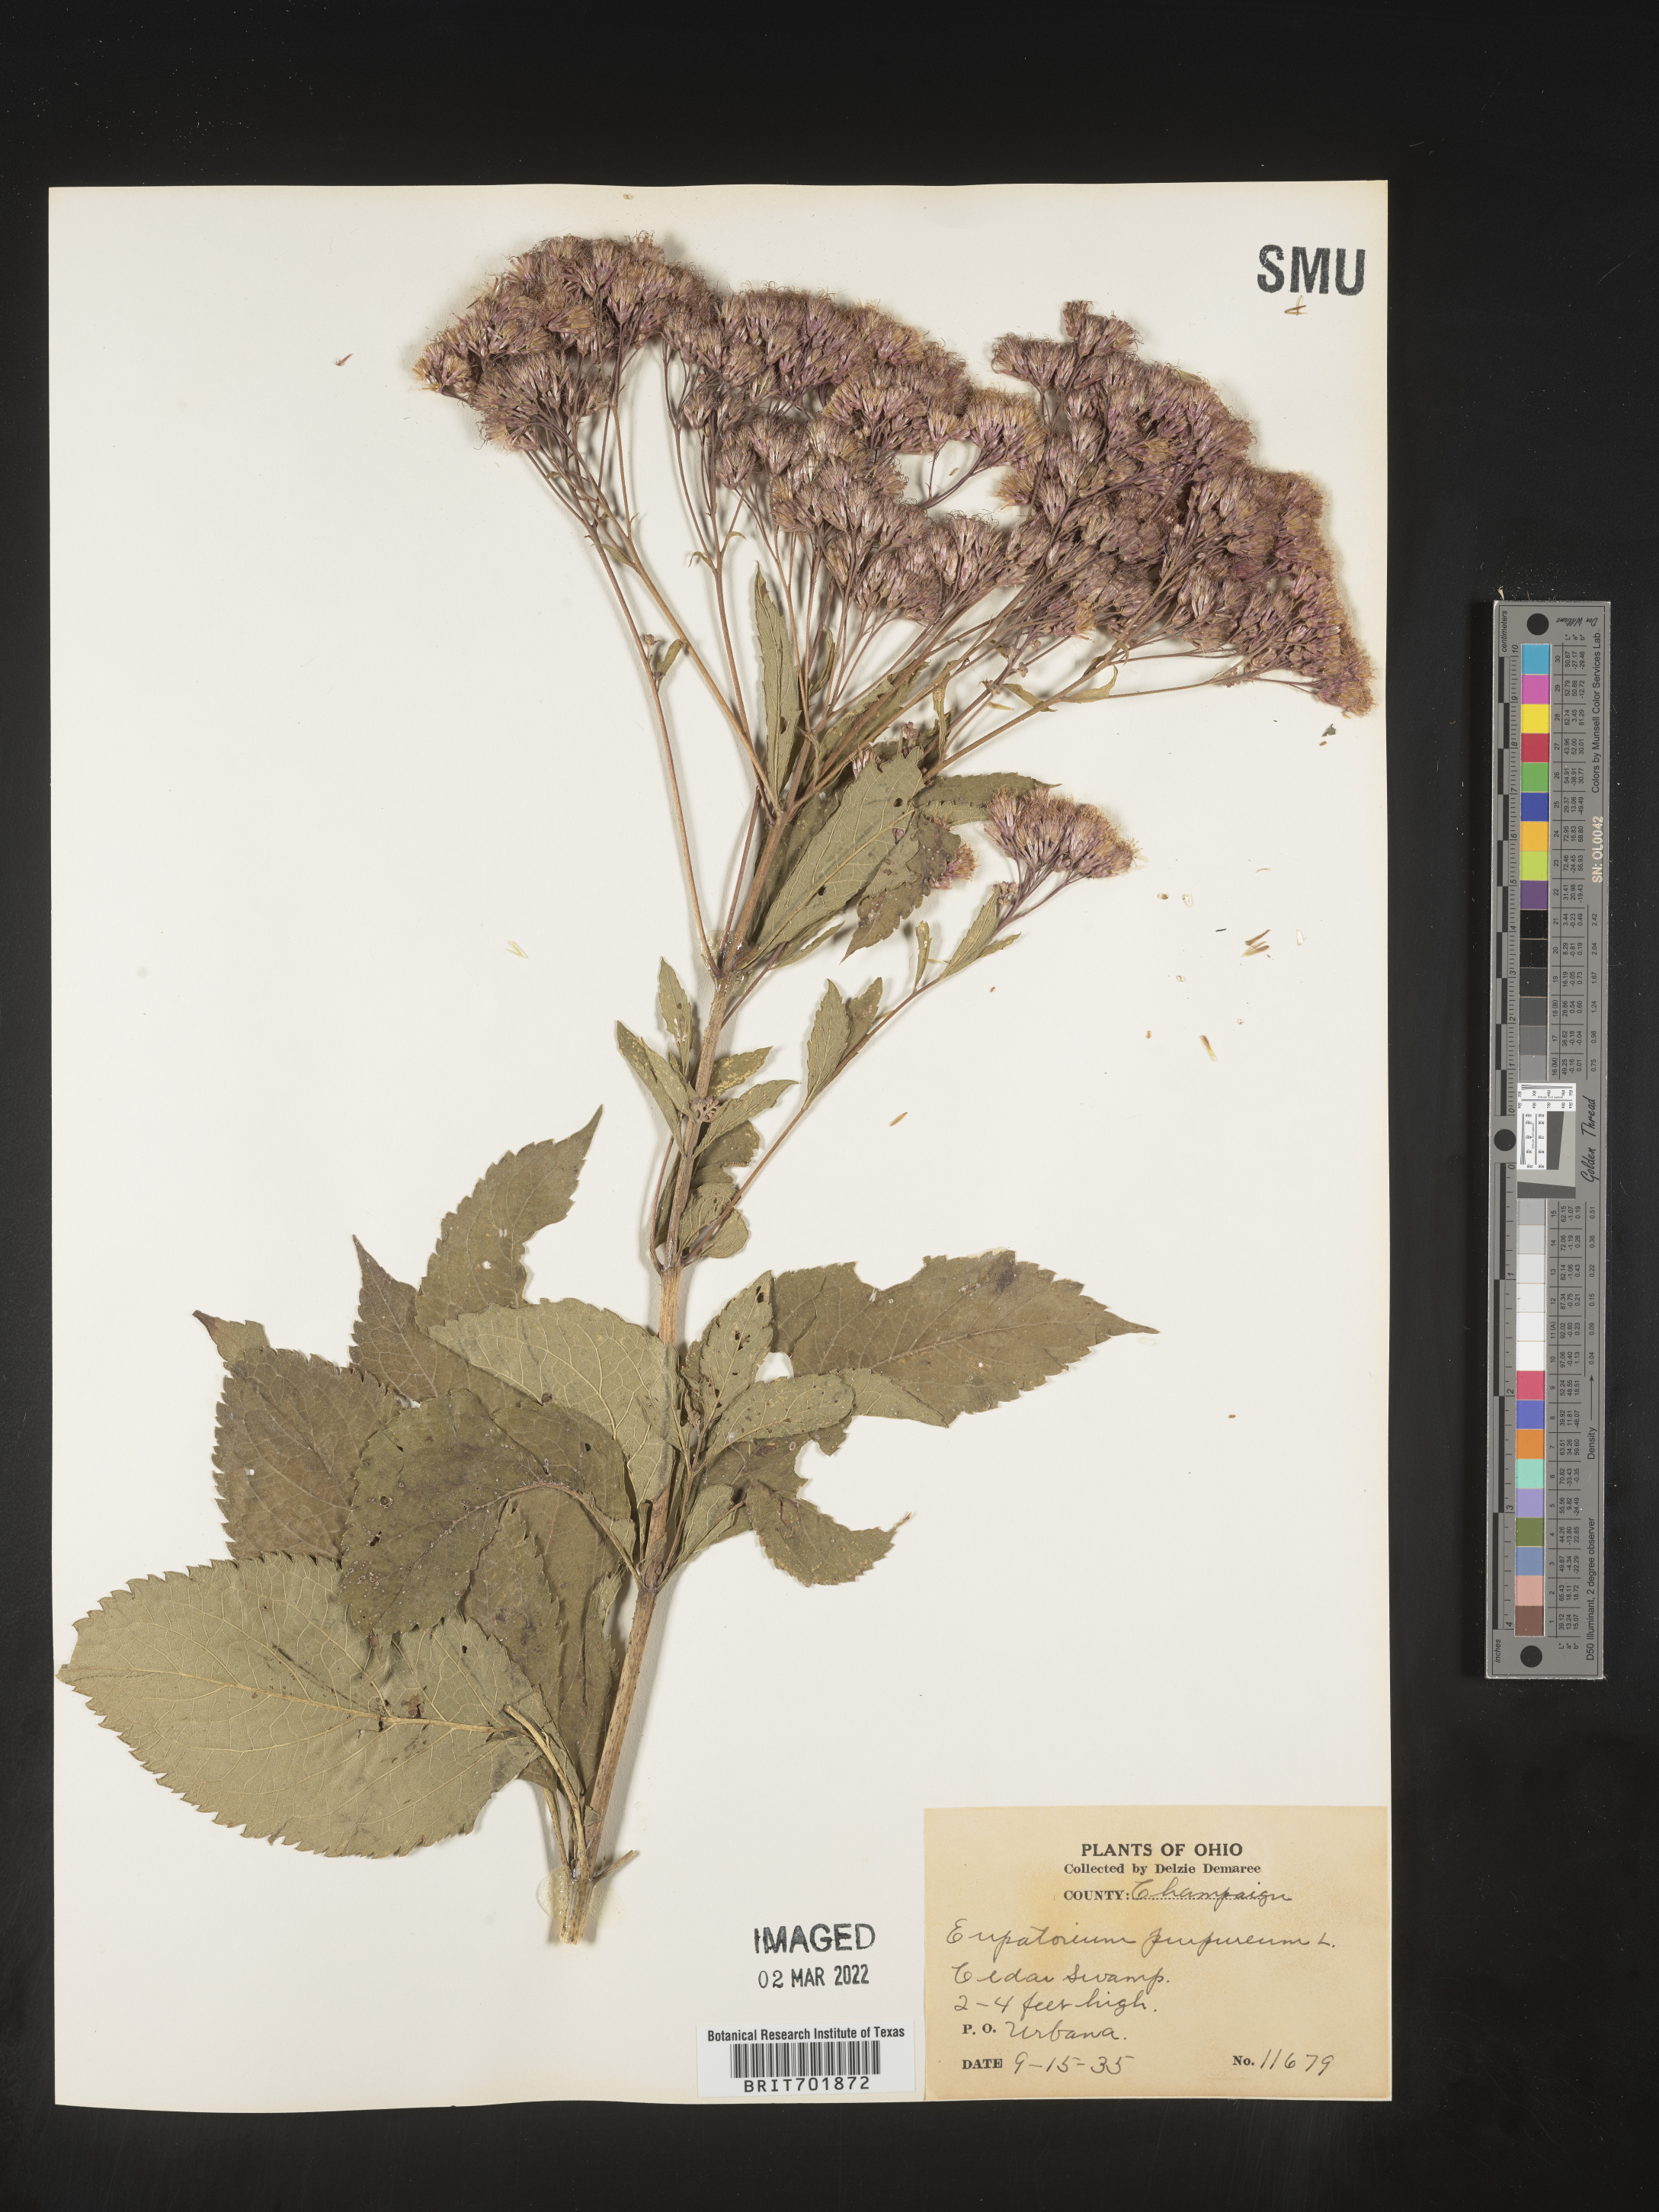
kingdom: Plantae
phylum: Tracheophyta
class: Magnoliopsida
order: Asterales
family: Asteraceae
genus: Eupatorium
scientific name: Eupatorium quaternum
